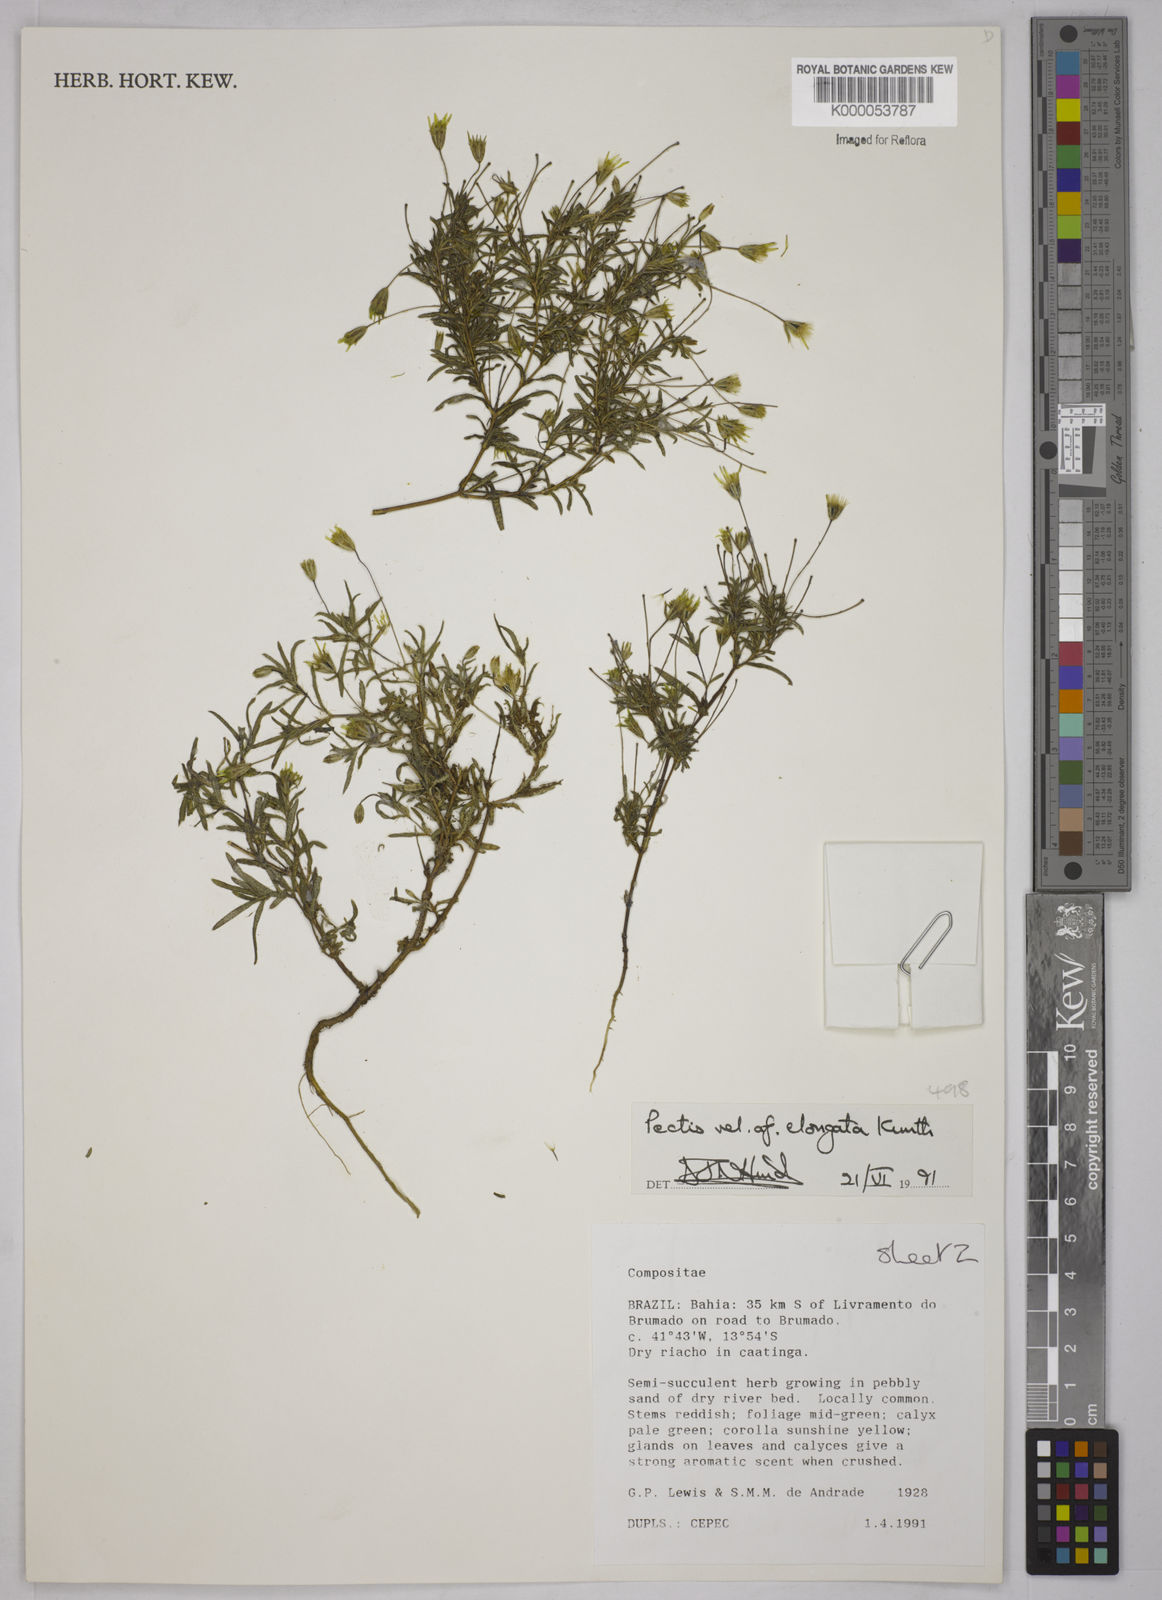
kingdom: Plantae
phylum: Tracheophyta
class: Magnoliopsida
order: Asterales
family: Asteraceae
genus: Pectis
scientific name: Pectis elongata
